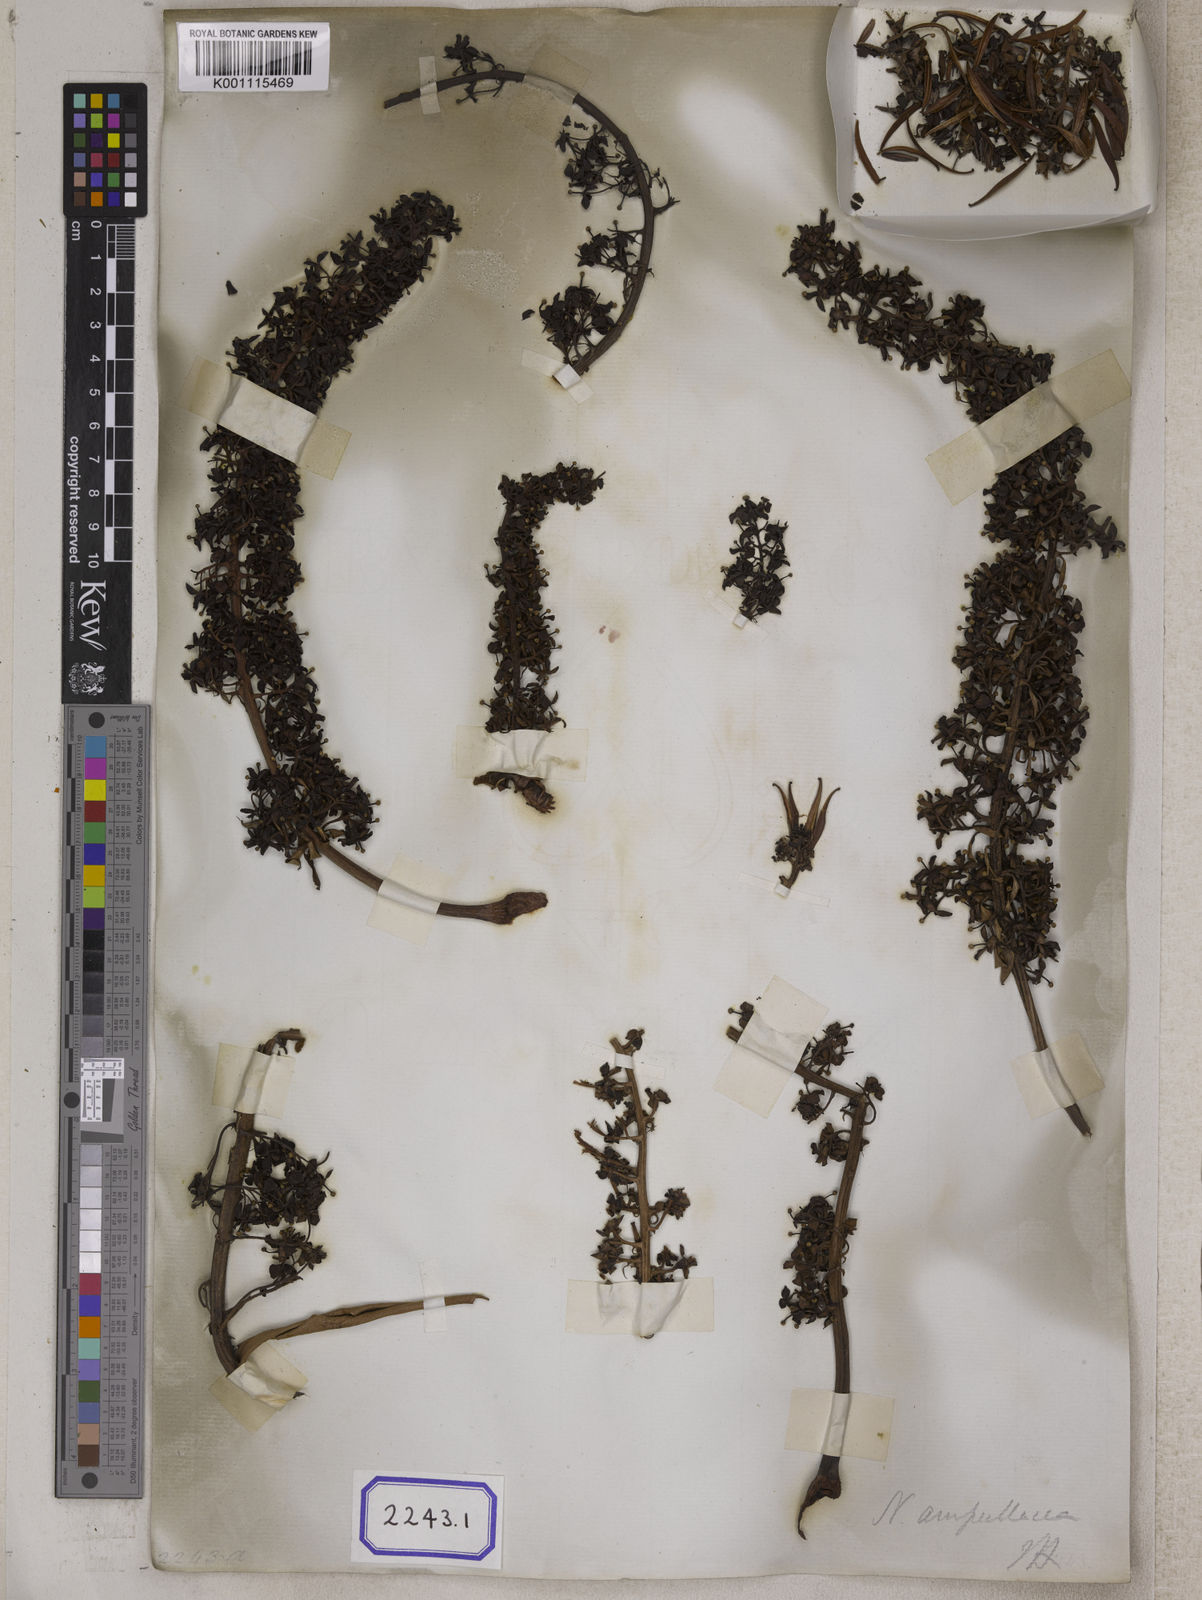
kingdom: Plantae
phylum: Tracheophyta
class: Magnoliopsida
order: Caryophyllales
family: Nepenthaceae
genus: Nepenthes
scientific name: Nepenthes ampullaria
